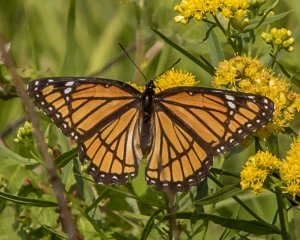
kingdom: Animalia
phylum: Arthropoda
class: Insecta
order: Lepidoptera
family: Nymphalidae
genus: Limenitis
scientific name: Limenitis archippus
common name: Viceroy
